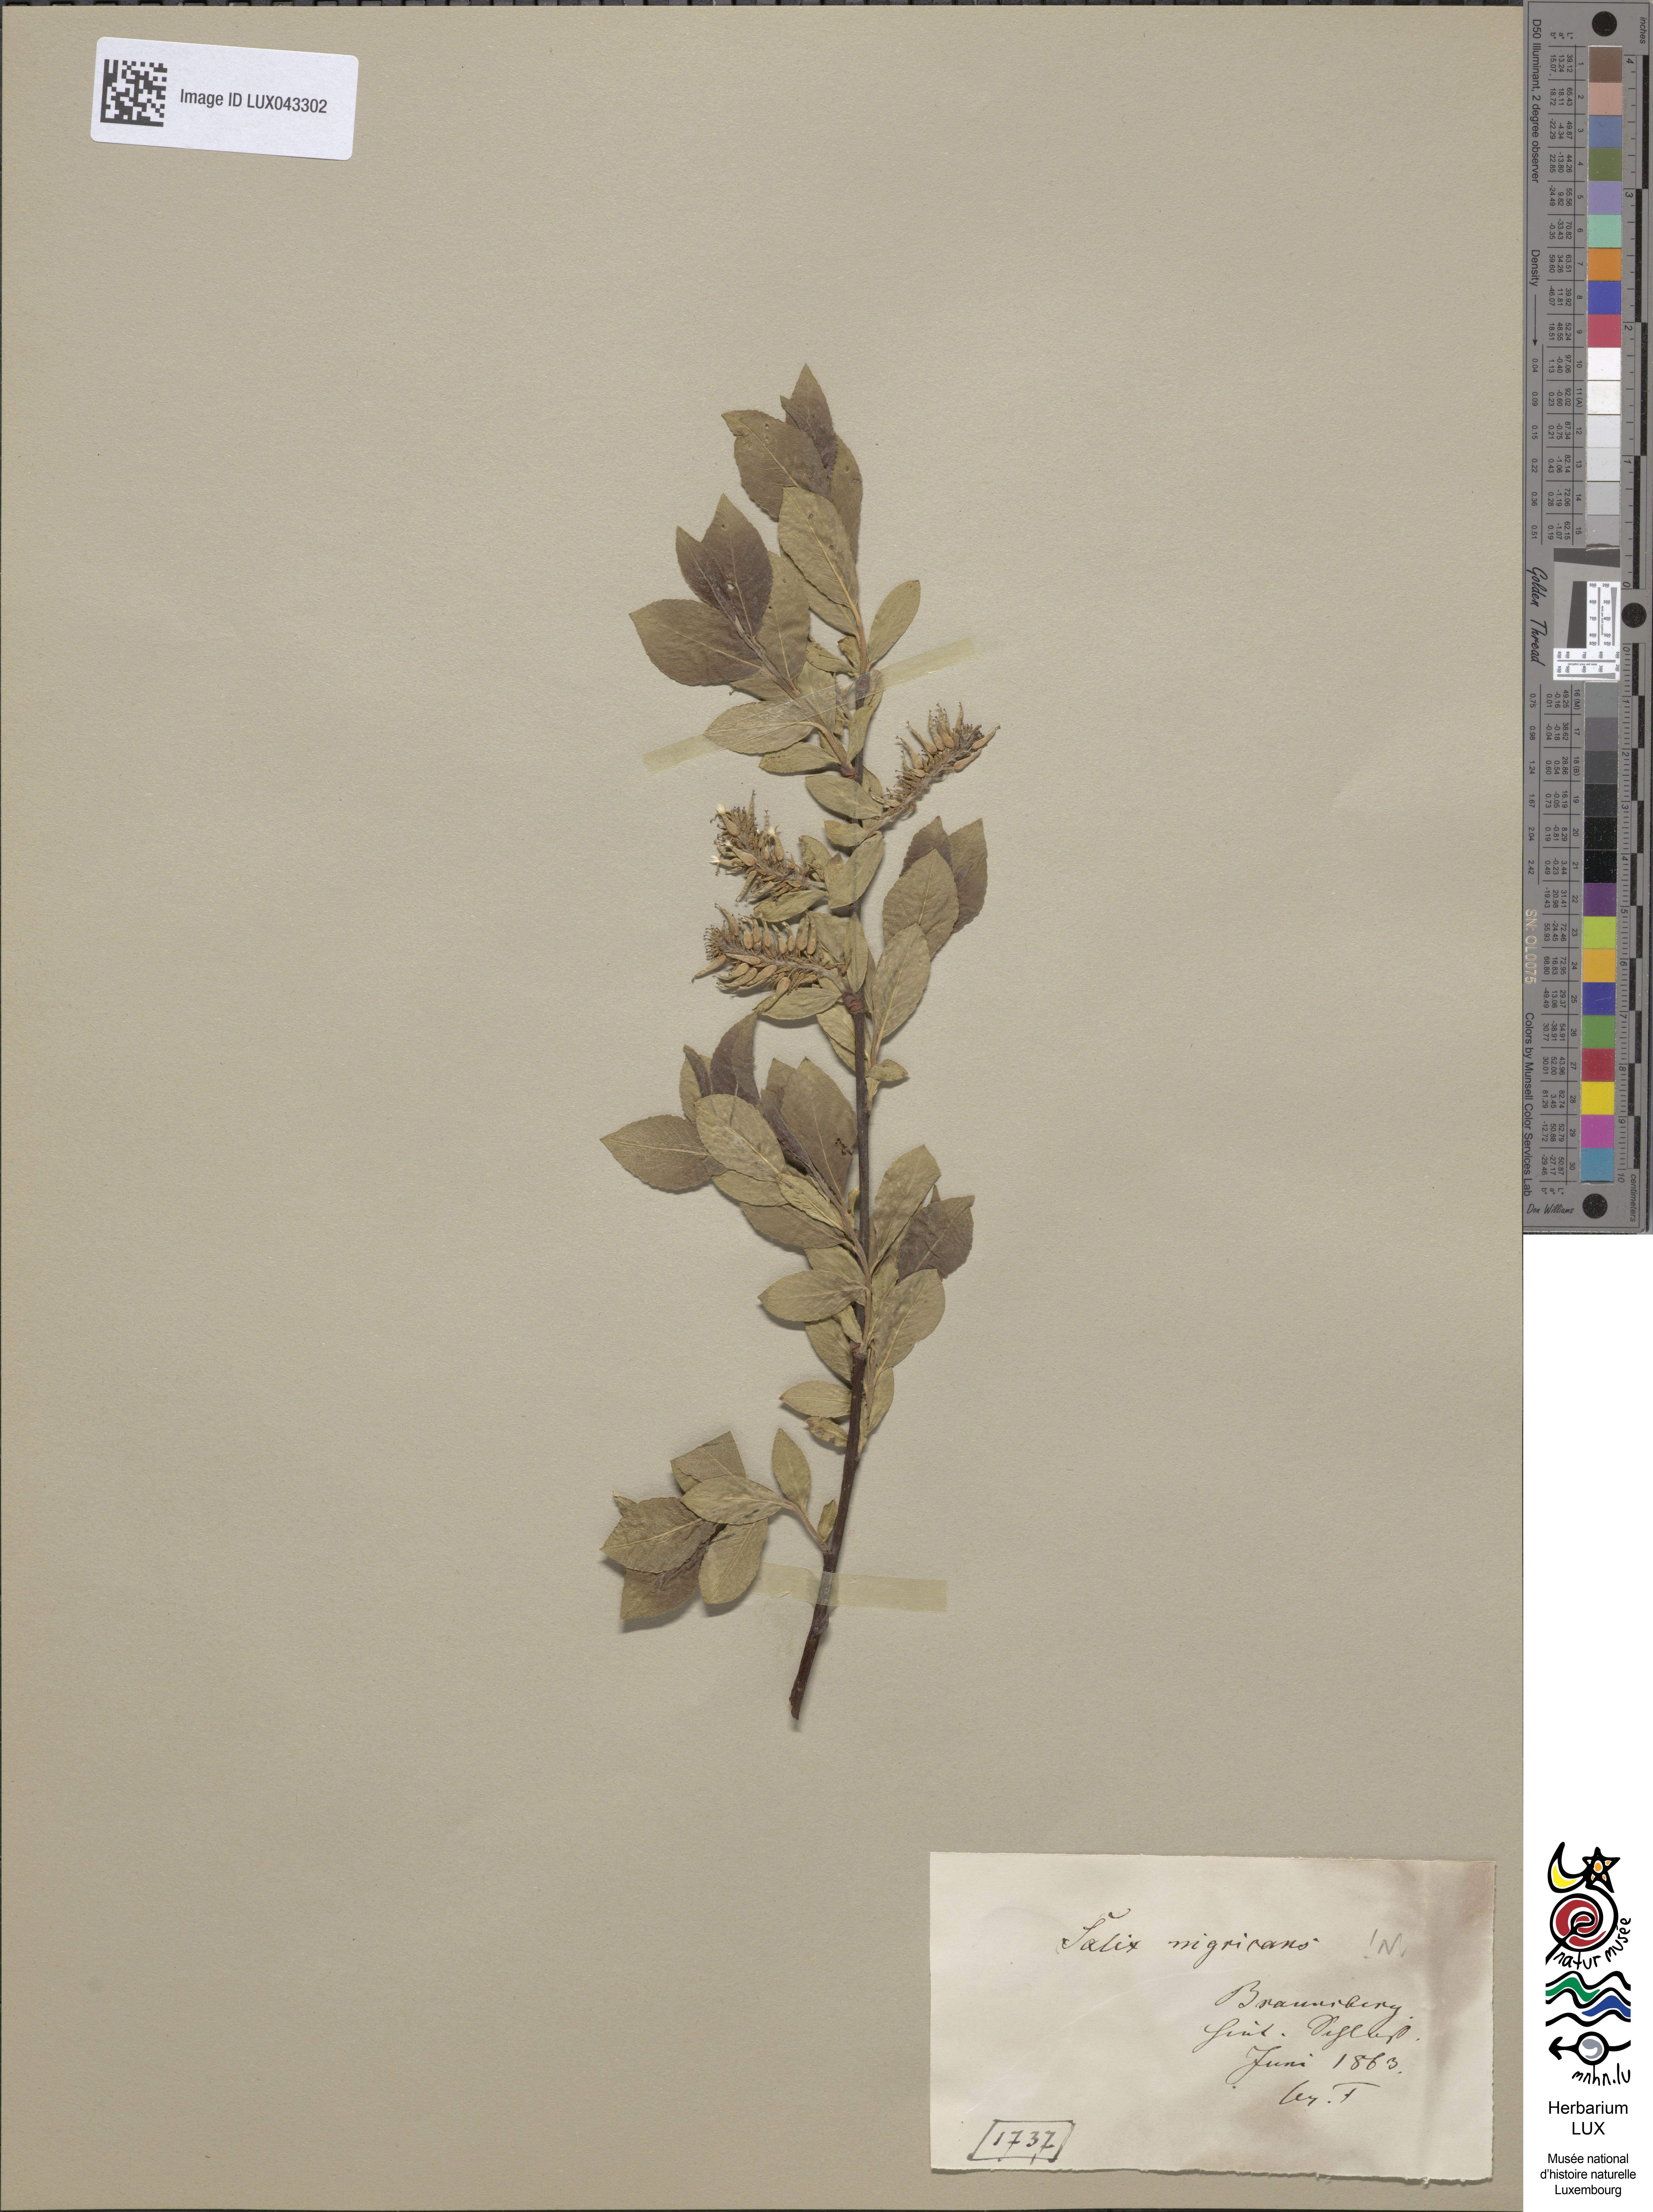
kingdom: Plantae
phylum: Tracheophyta
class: Magnoliopsida
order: Malpighiales
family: Salicaceae
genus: Salix
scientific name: Salix myrsinifolia
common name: Dark-leaved willow
